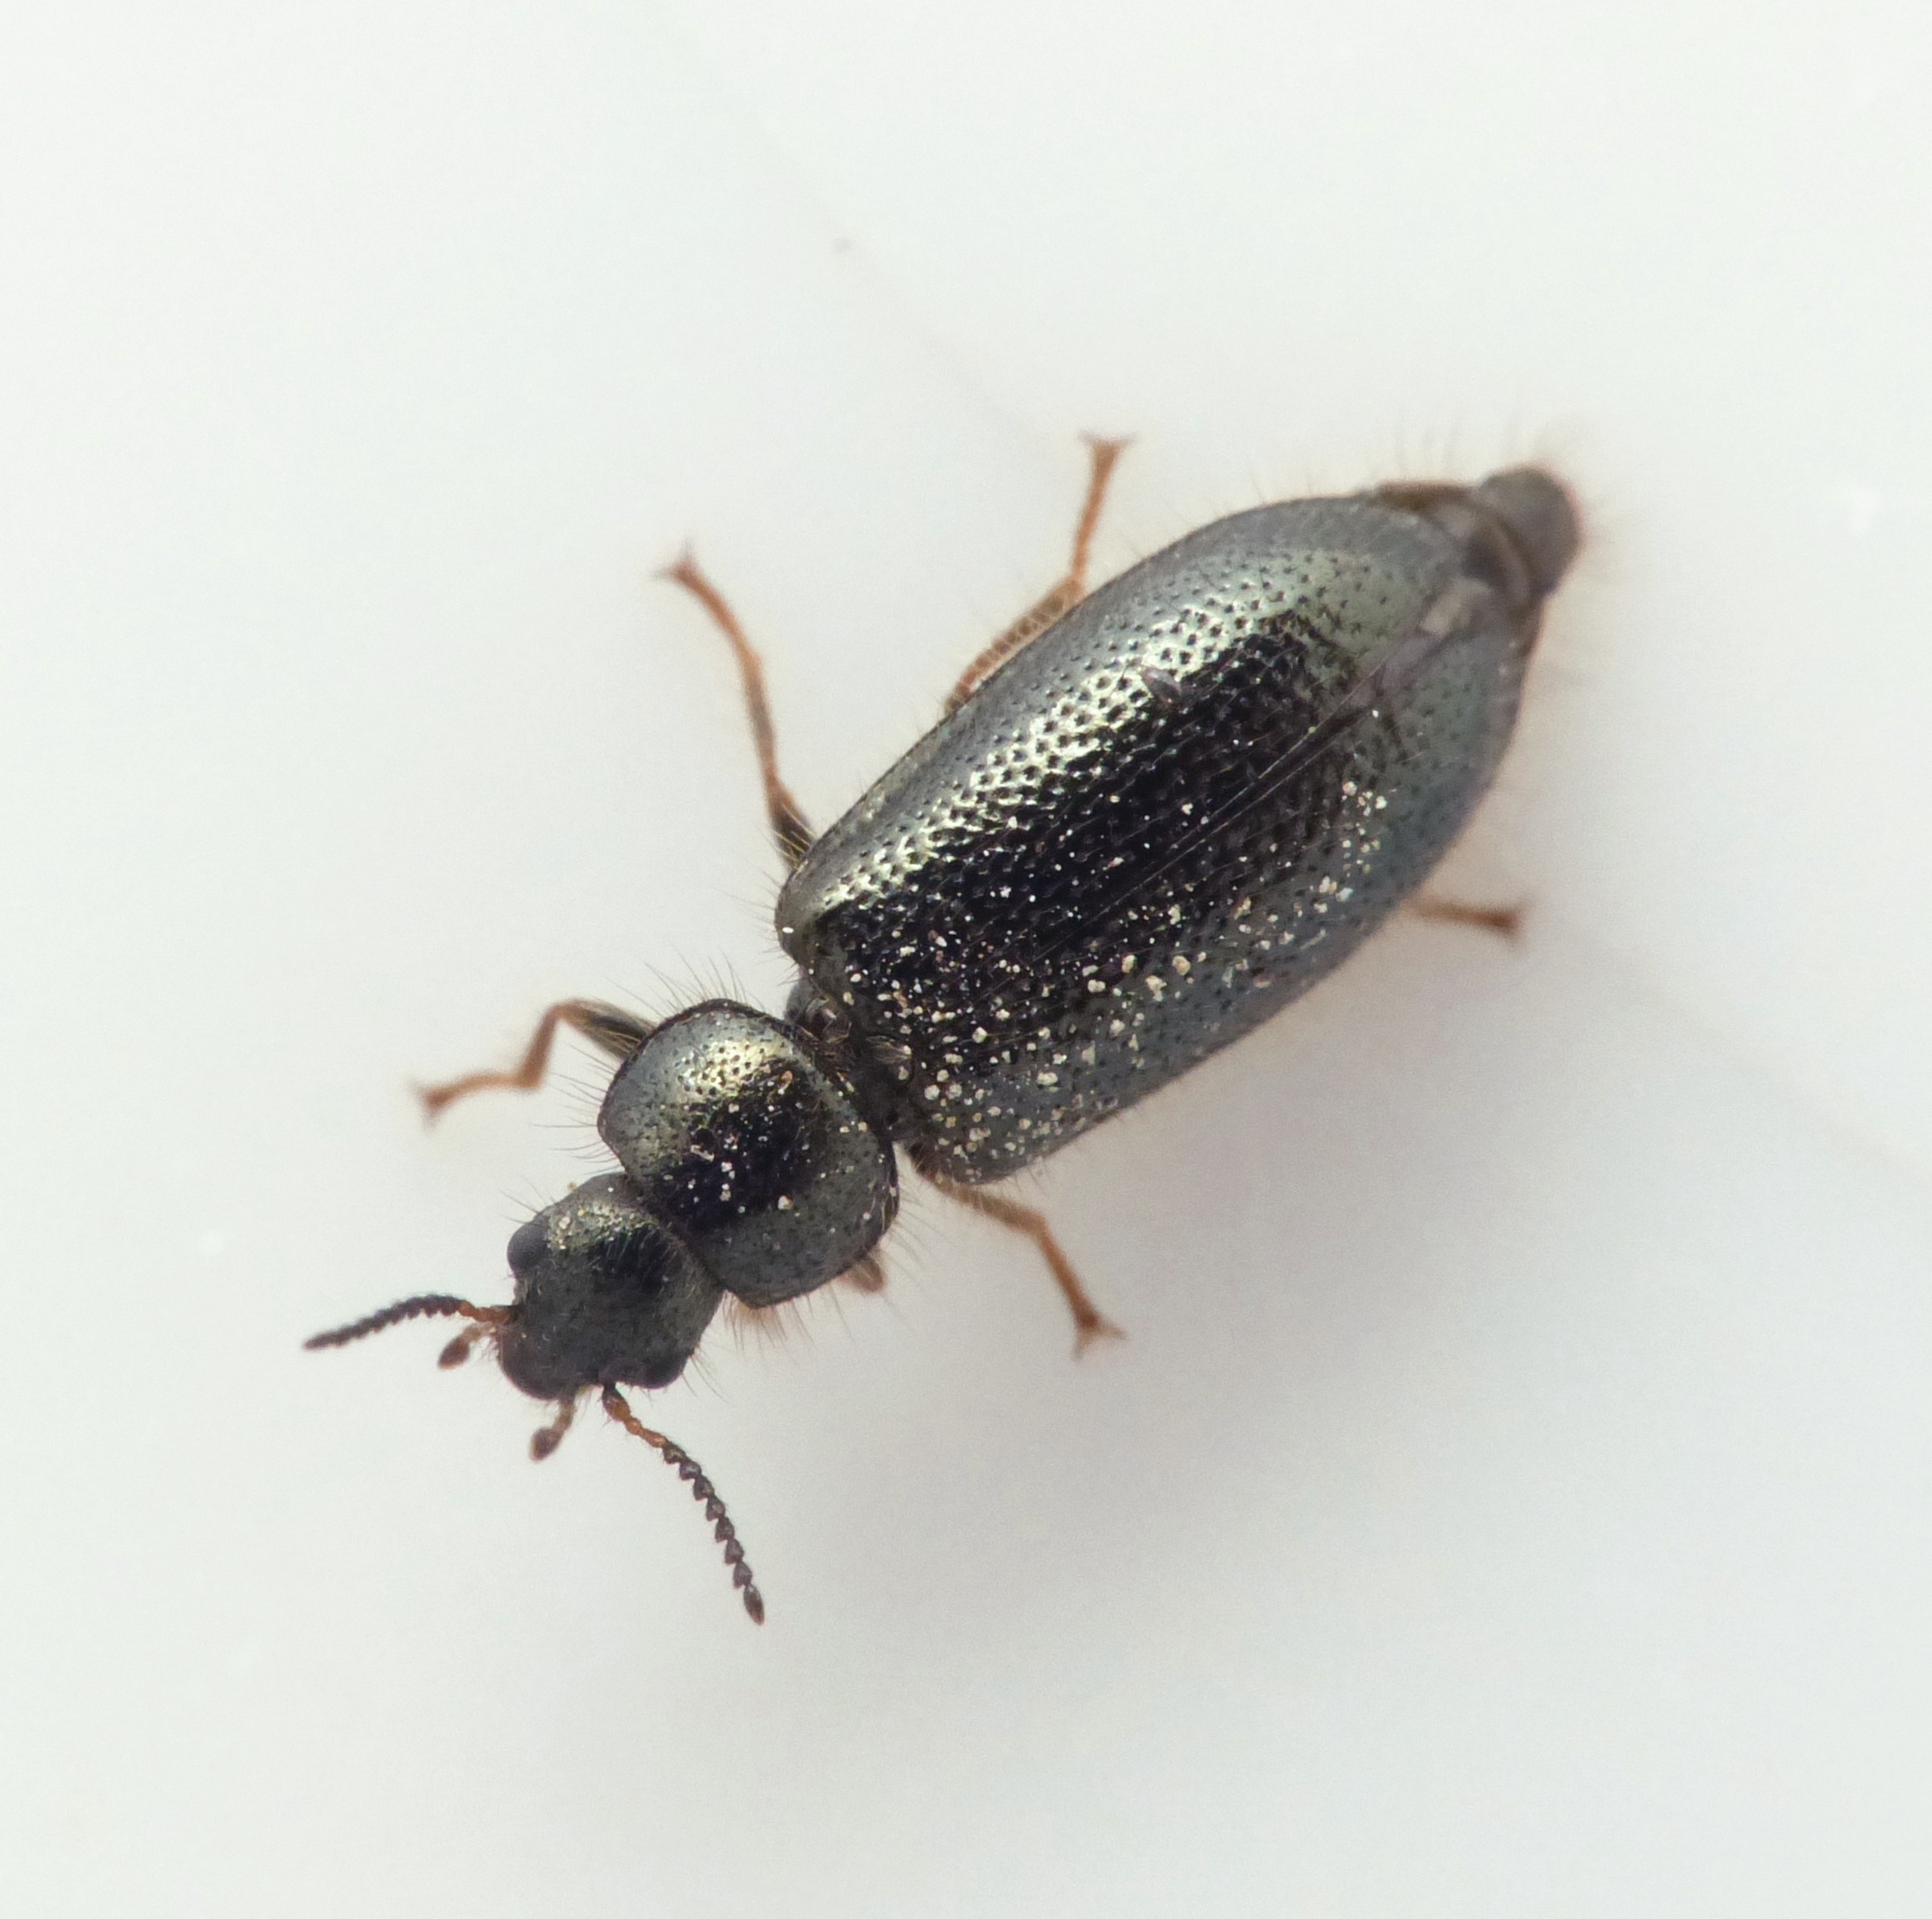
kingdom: Animalia
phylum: Arthropoda
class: Insecta
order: Coleoptera
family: Dasytidae
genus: Aplocnemus
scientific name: Aplocnemus nigricornis
